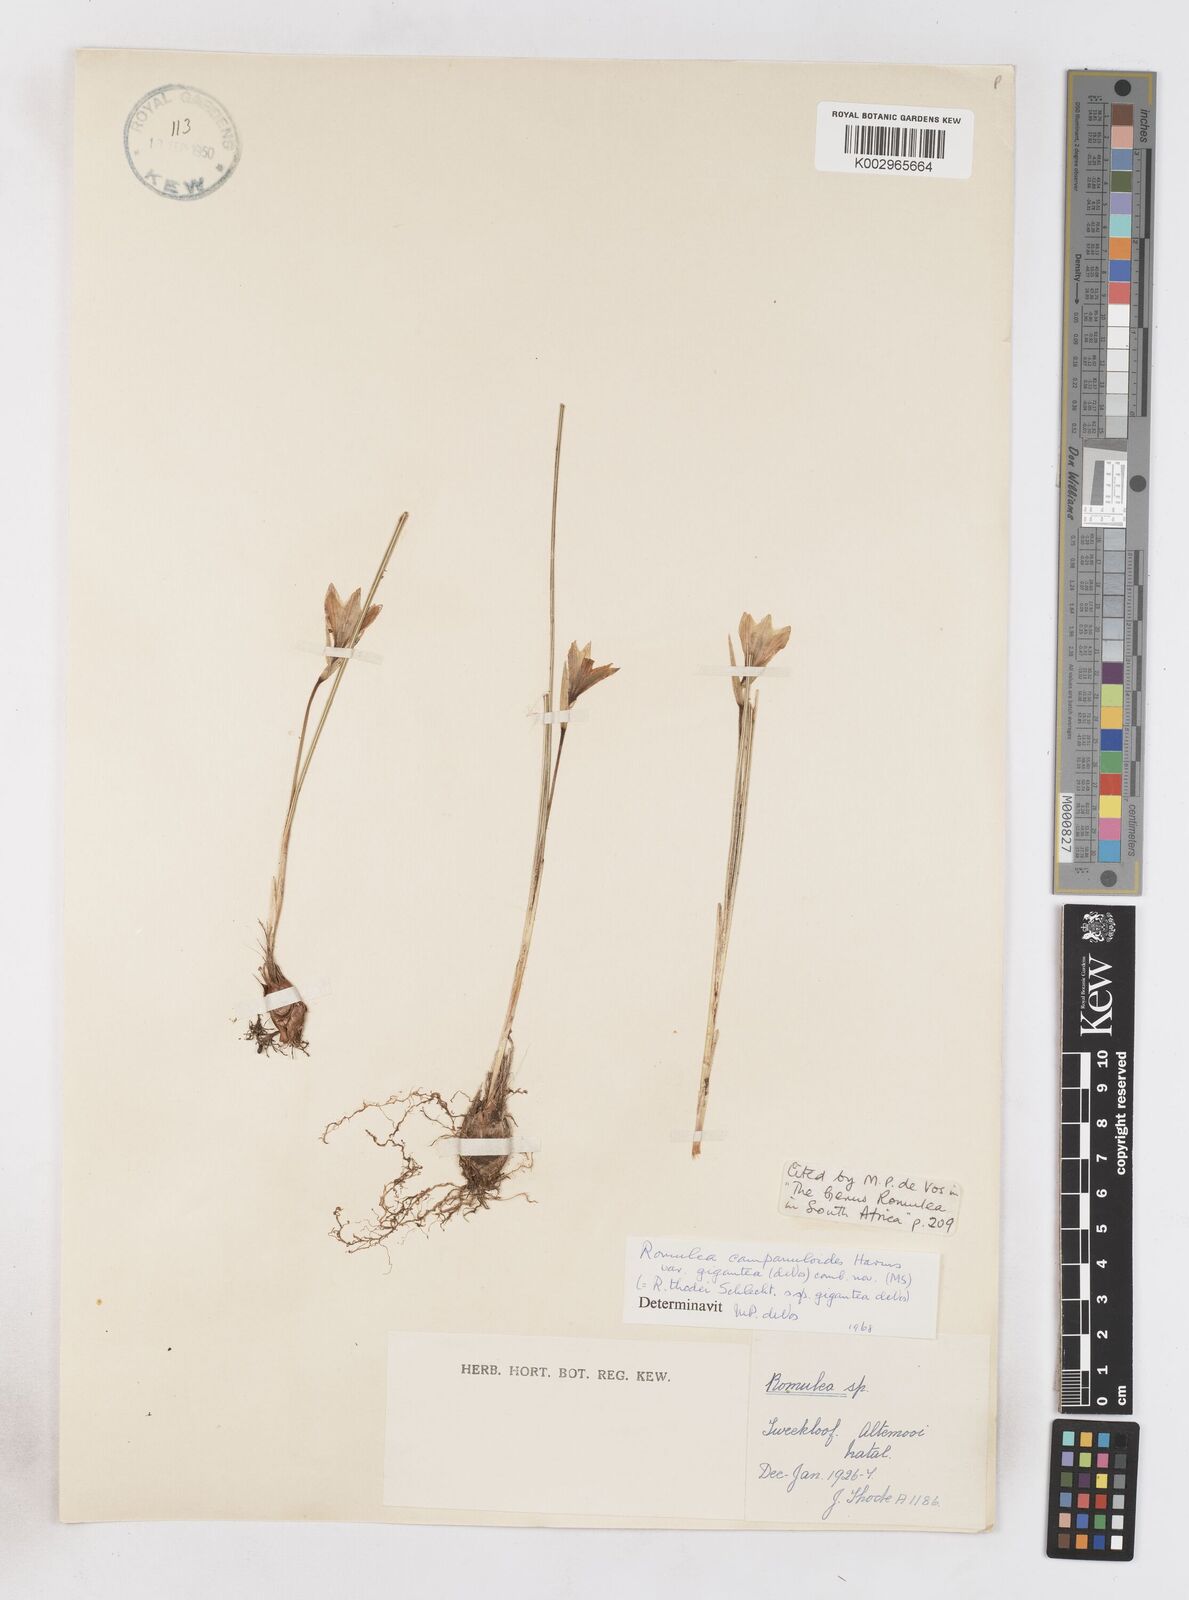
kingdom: Plantae
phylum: Tracheophyta
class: Liliopsida
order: Asparagales
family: Iridaceae
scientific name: Iridaceae
